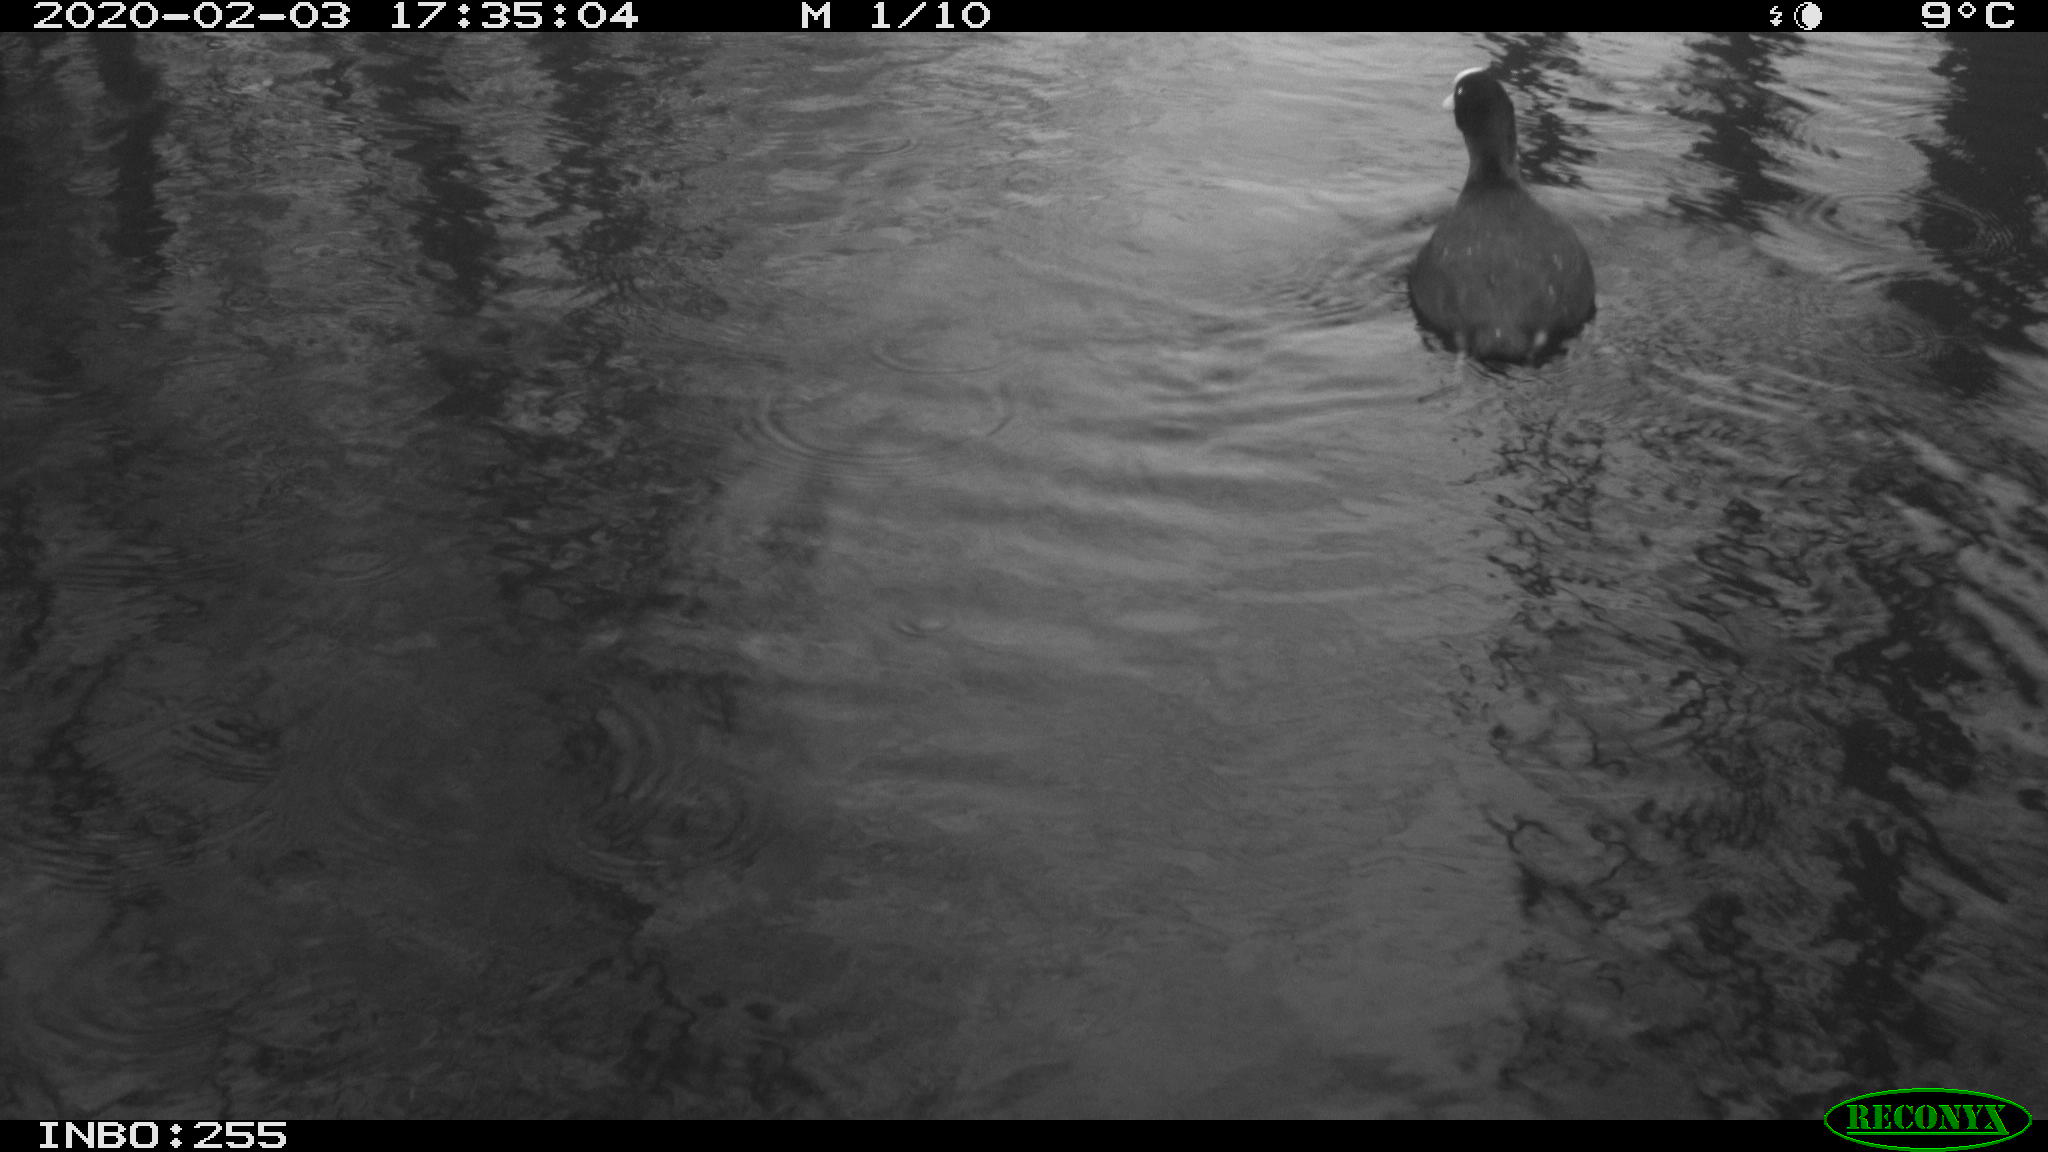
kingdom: Animalia
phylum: Chordata
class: Aves
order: Gruiformes
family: Rallidae
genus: Fulica
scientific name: Fulica atra
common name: Eurasian coot
